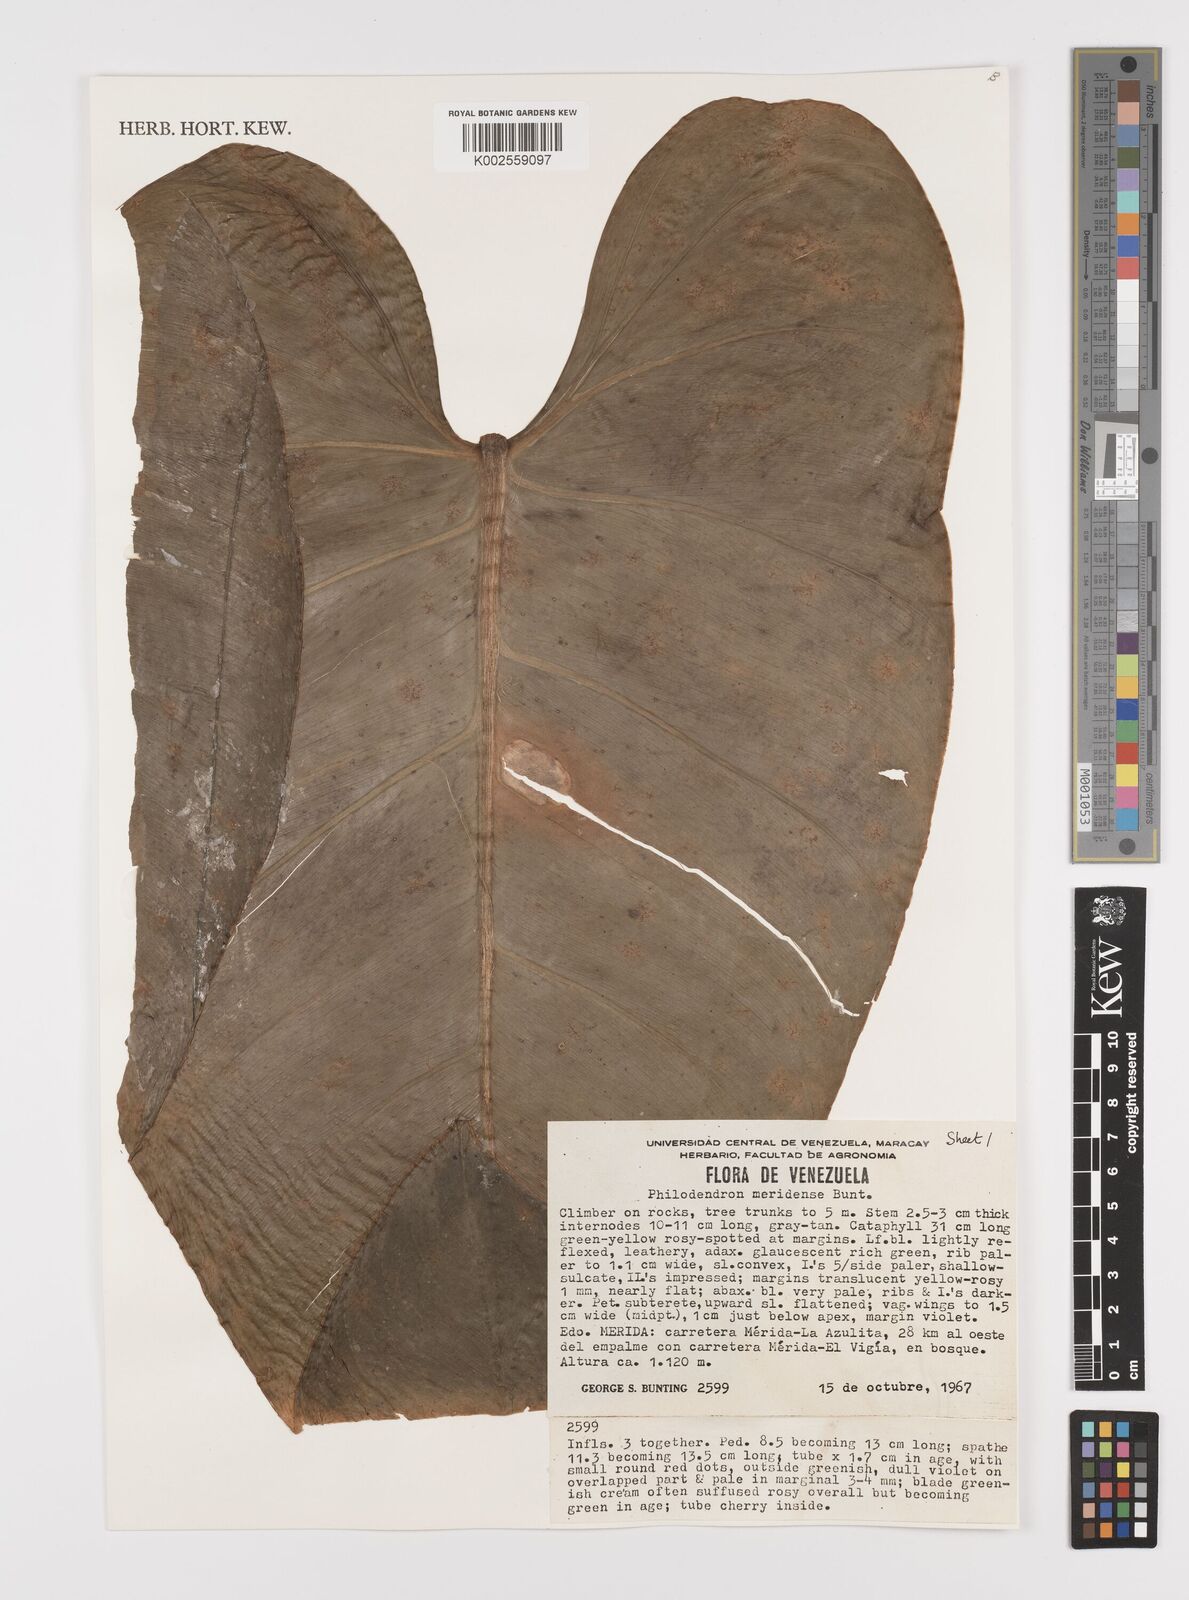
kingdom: Plantae
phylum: Tracheophyta
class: Liliopsida
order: Alismatales
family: Araceae
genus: Philodendron
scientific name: Philodendron meridense
